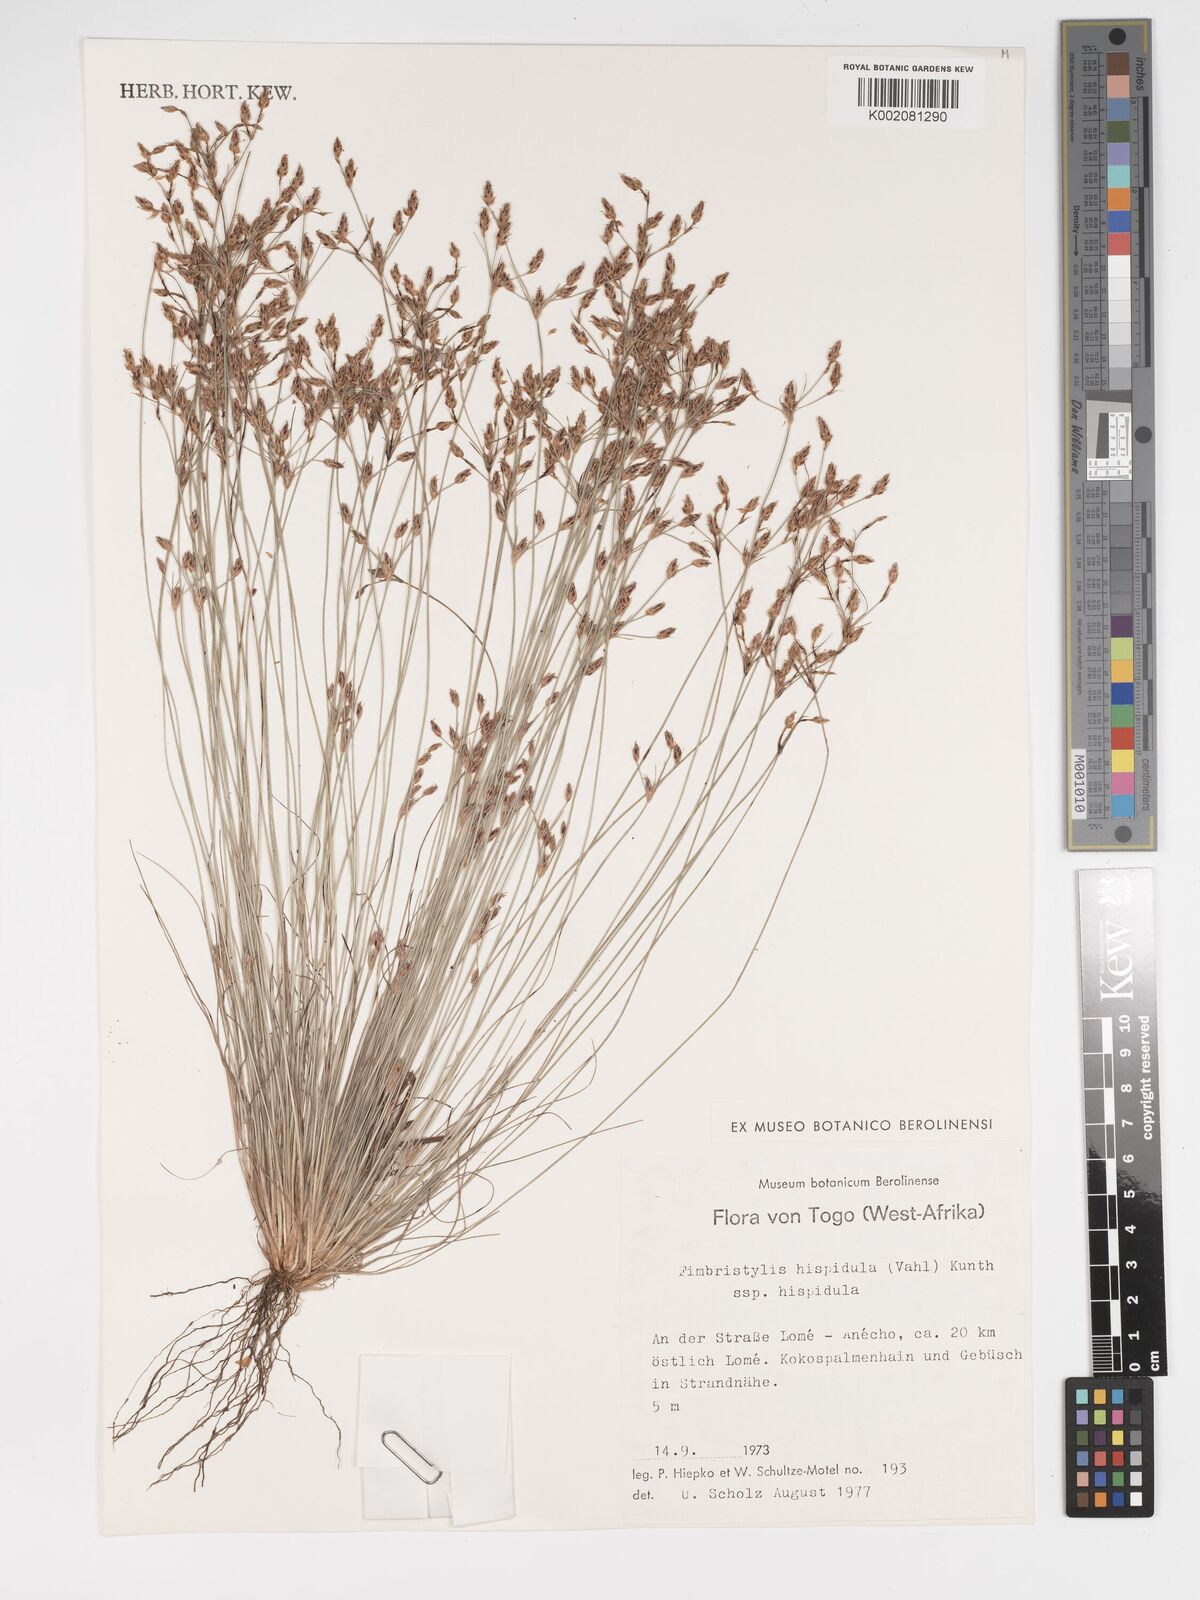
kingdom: Plantae
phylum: Tracheophyta
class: Liliopsida
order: Poales
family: Cyperaceae
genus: Bulbostylis
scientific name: Bulbostylis hispidula
